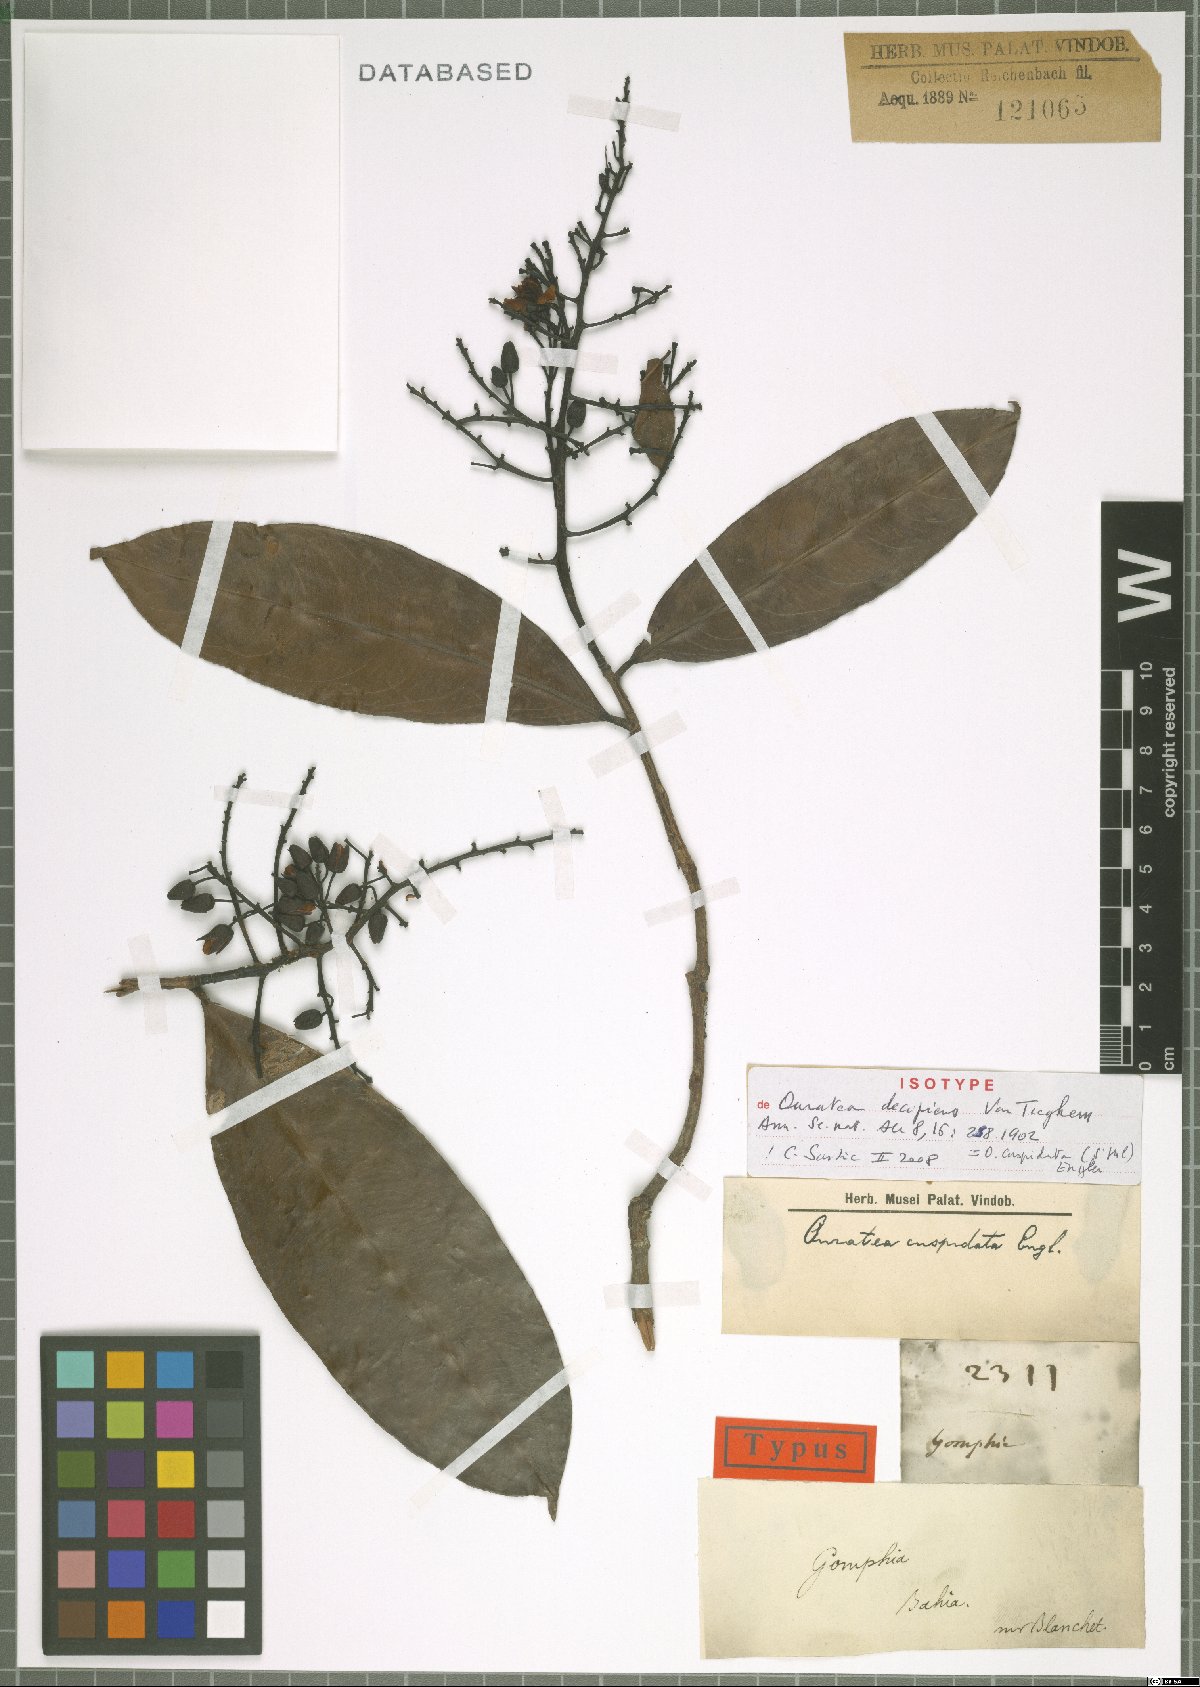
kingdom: Plantae
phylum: Tracheophyta
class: Magnoliopsida
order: Malpighiales
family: Ochnaceae
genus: Ouratea
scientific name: Ouratea cuspidata
